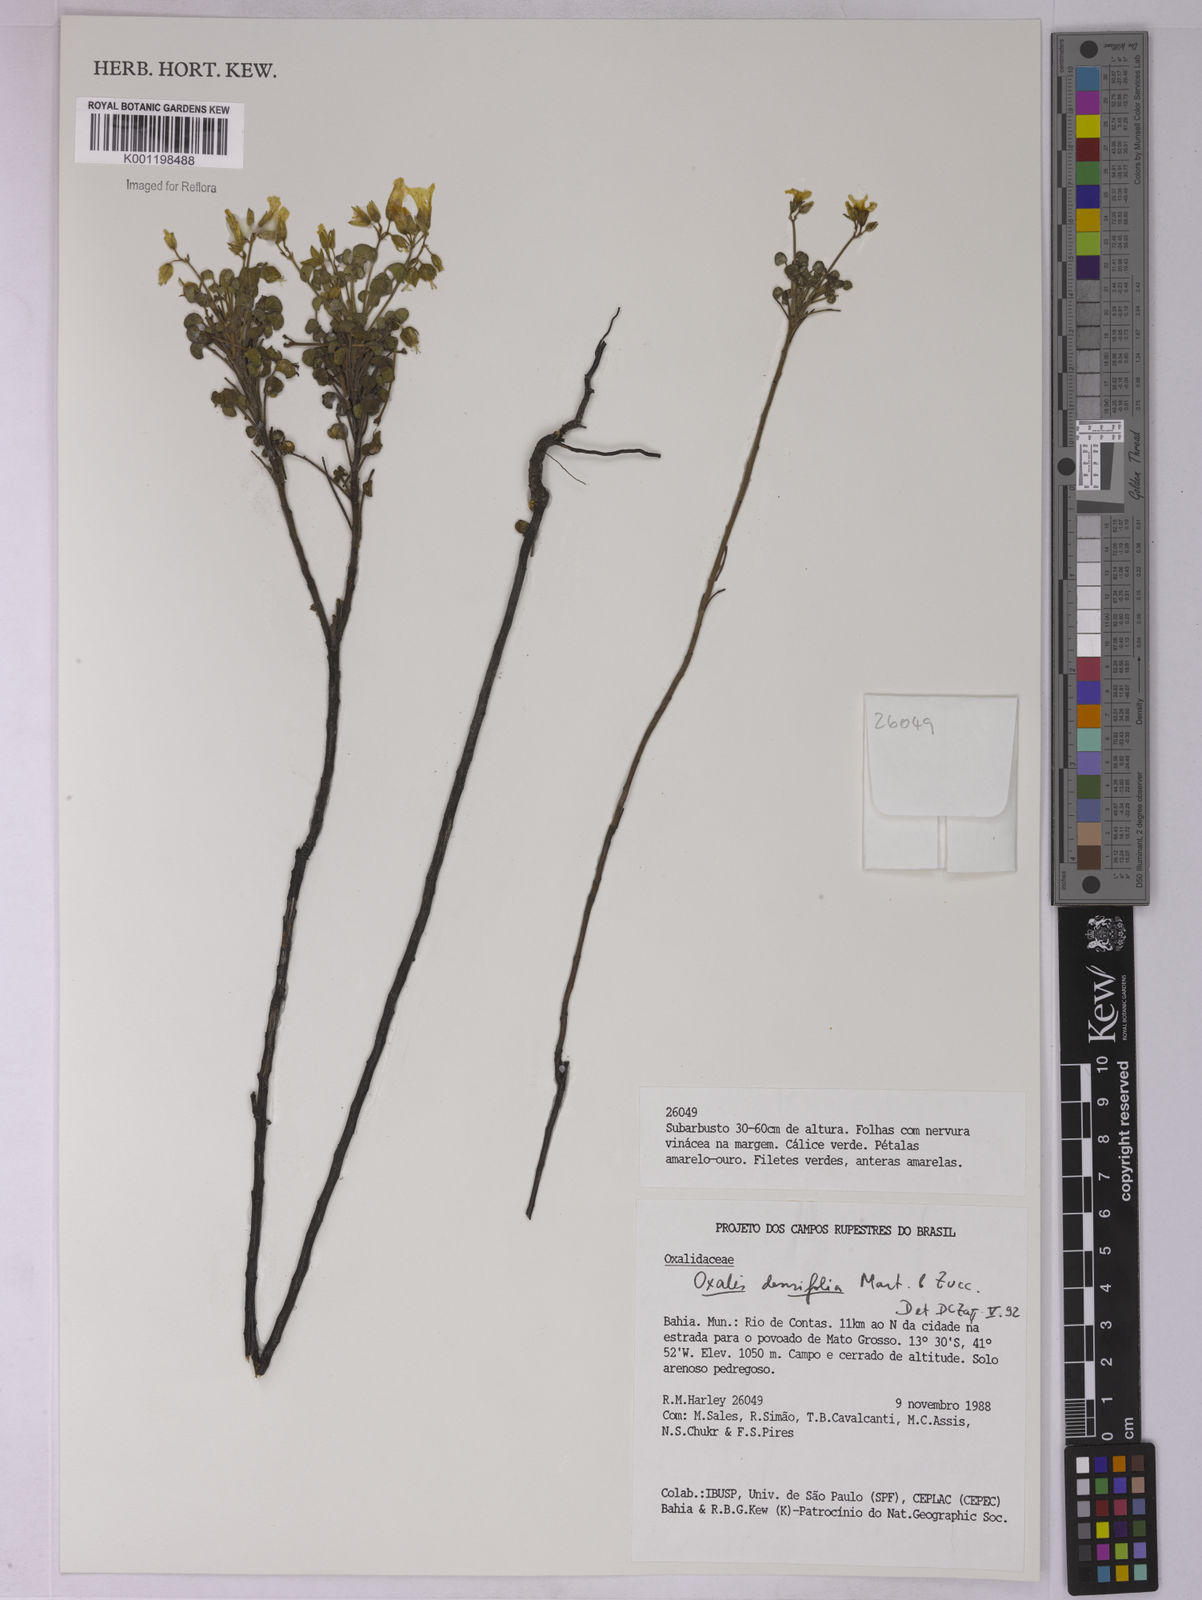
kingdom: Plantae
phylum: Tracheophyta
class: Magnoliopsida
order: Oxalidales
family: Oxalidaceae
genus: Oxalis
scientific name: Oxalis cerradoana
